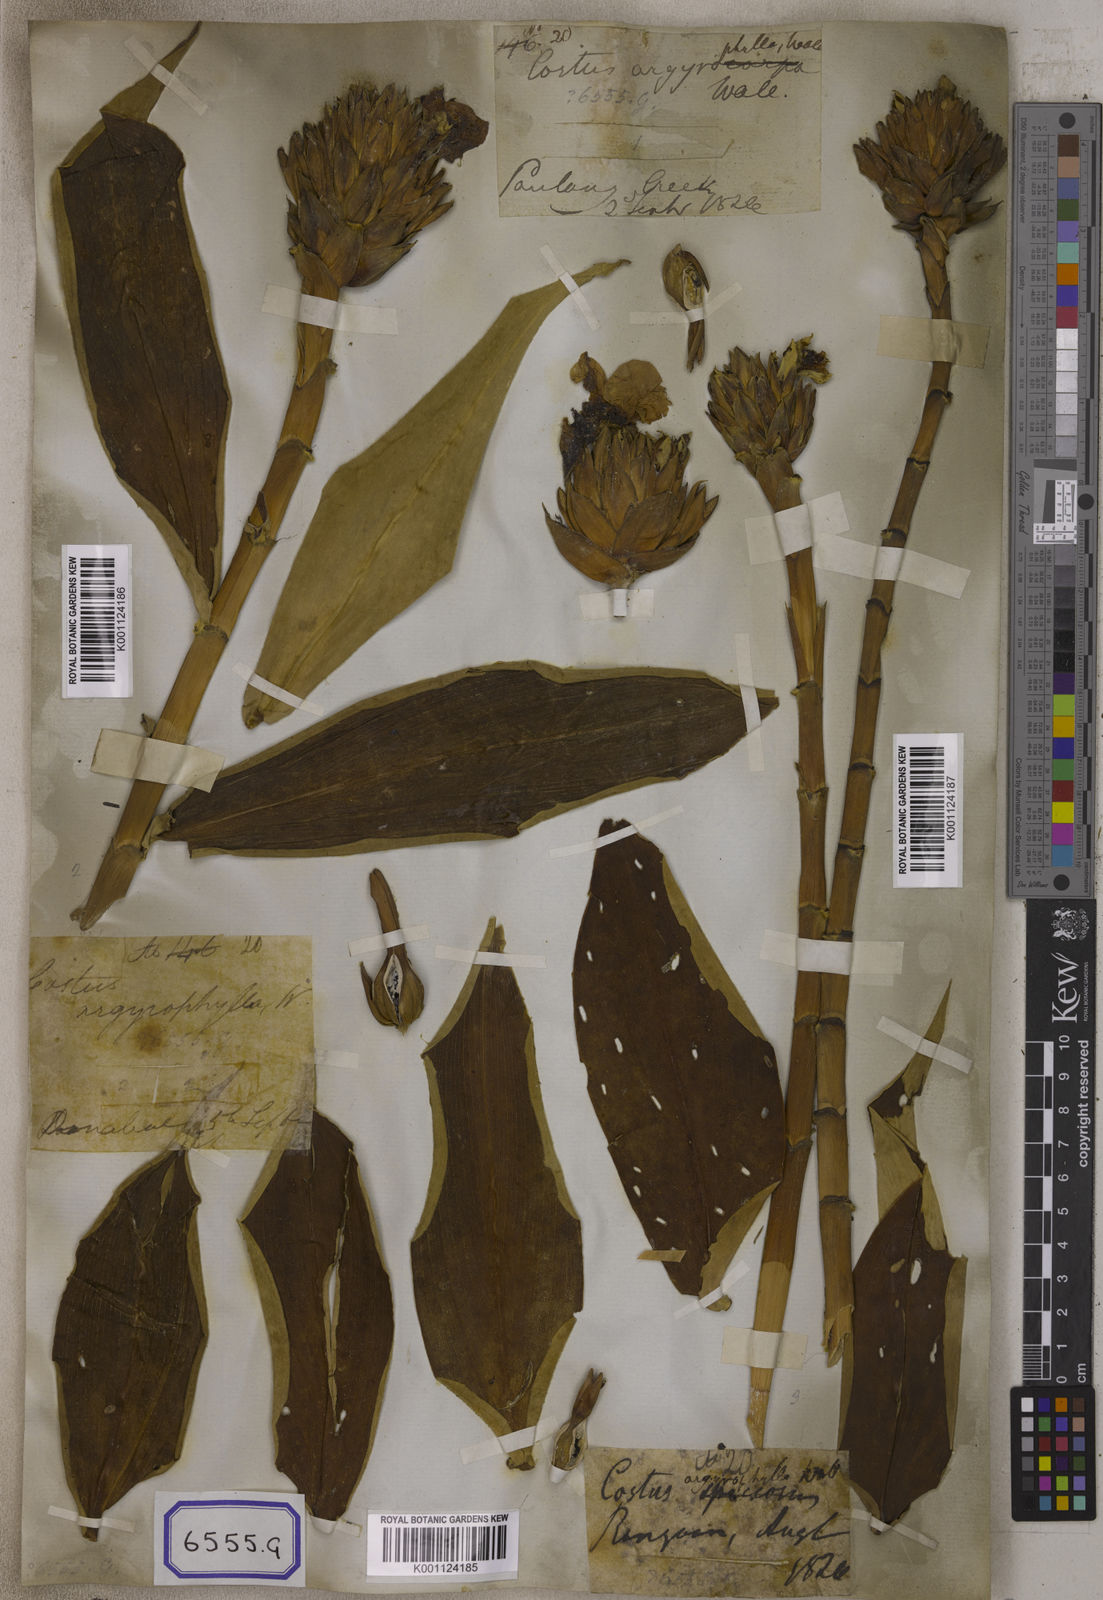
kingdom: Plantae
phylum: Tracheophyta
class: Liliopsida
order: Zingiberales
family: Costaceae
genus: Hellenia
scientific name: Hellenia speciosa
